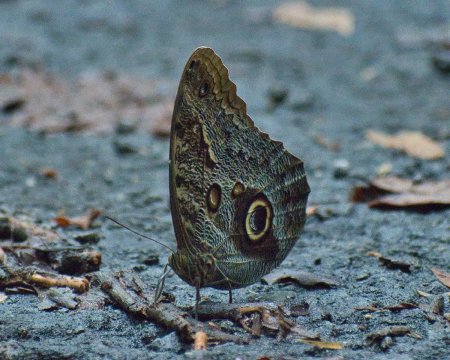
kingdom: Animalia
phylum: Arthropoda
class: Insecta
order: Lepidoptera
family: Nymphalidae
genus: Caligo
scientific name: Caligo telamonius
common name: Pale Owl-Butterfly
